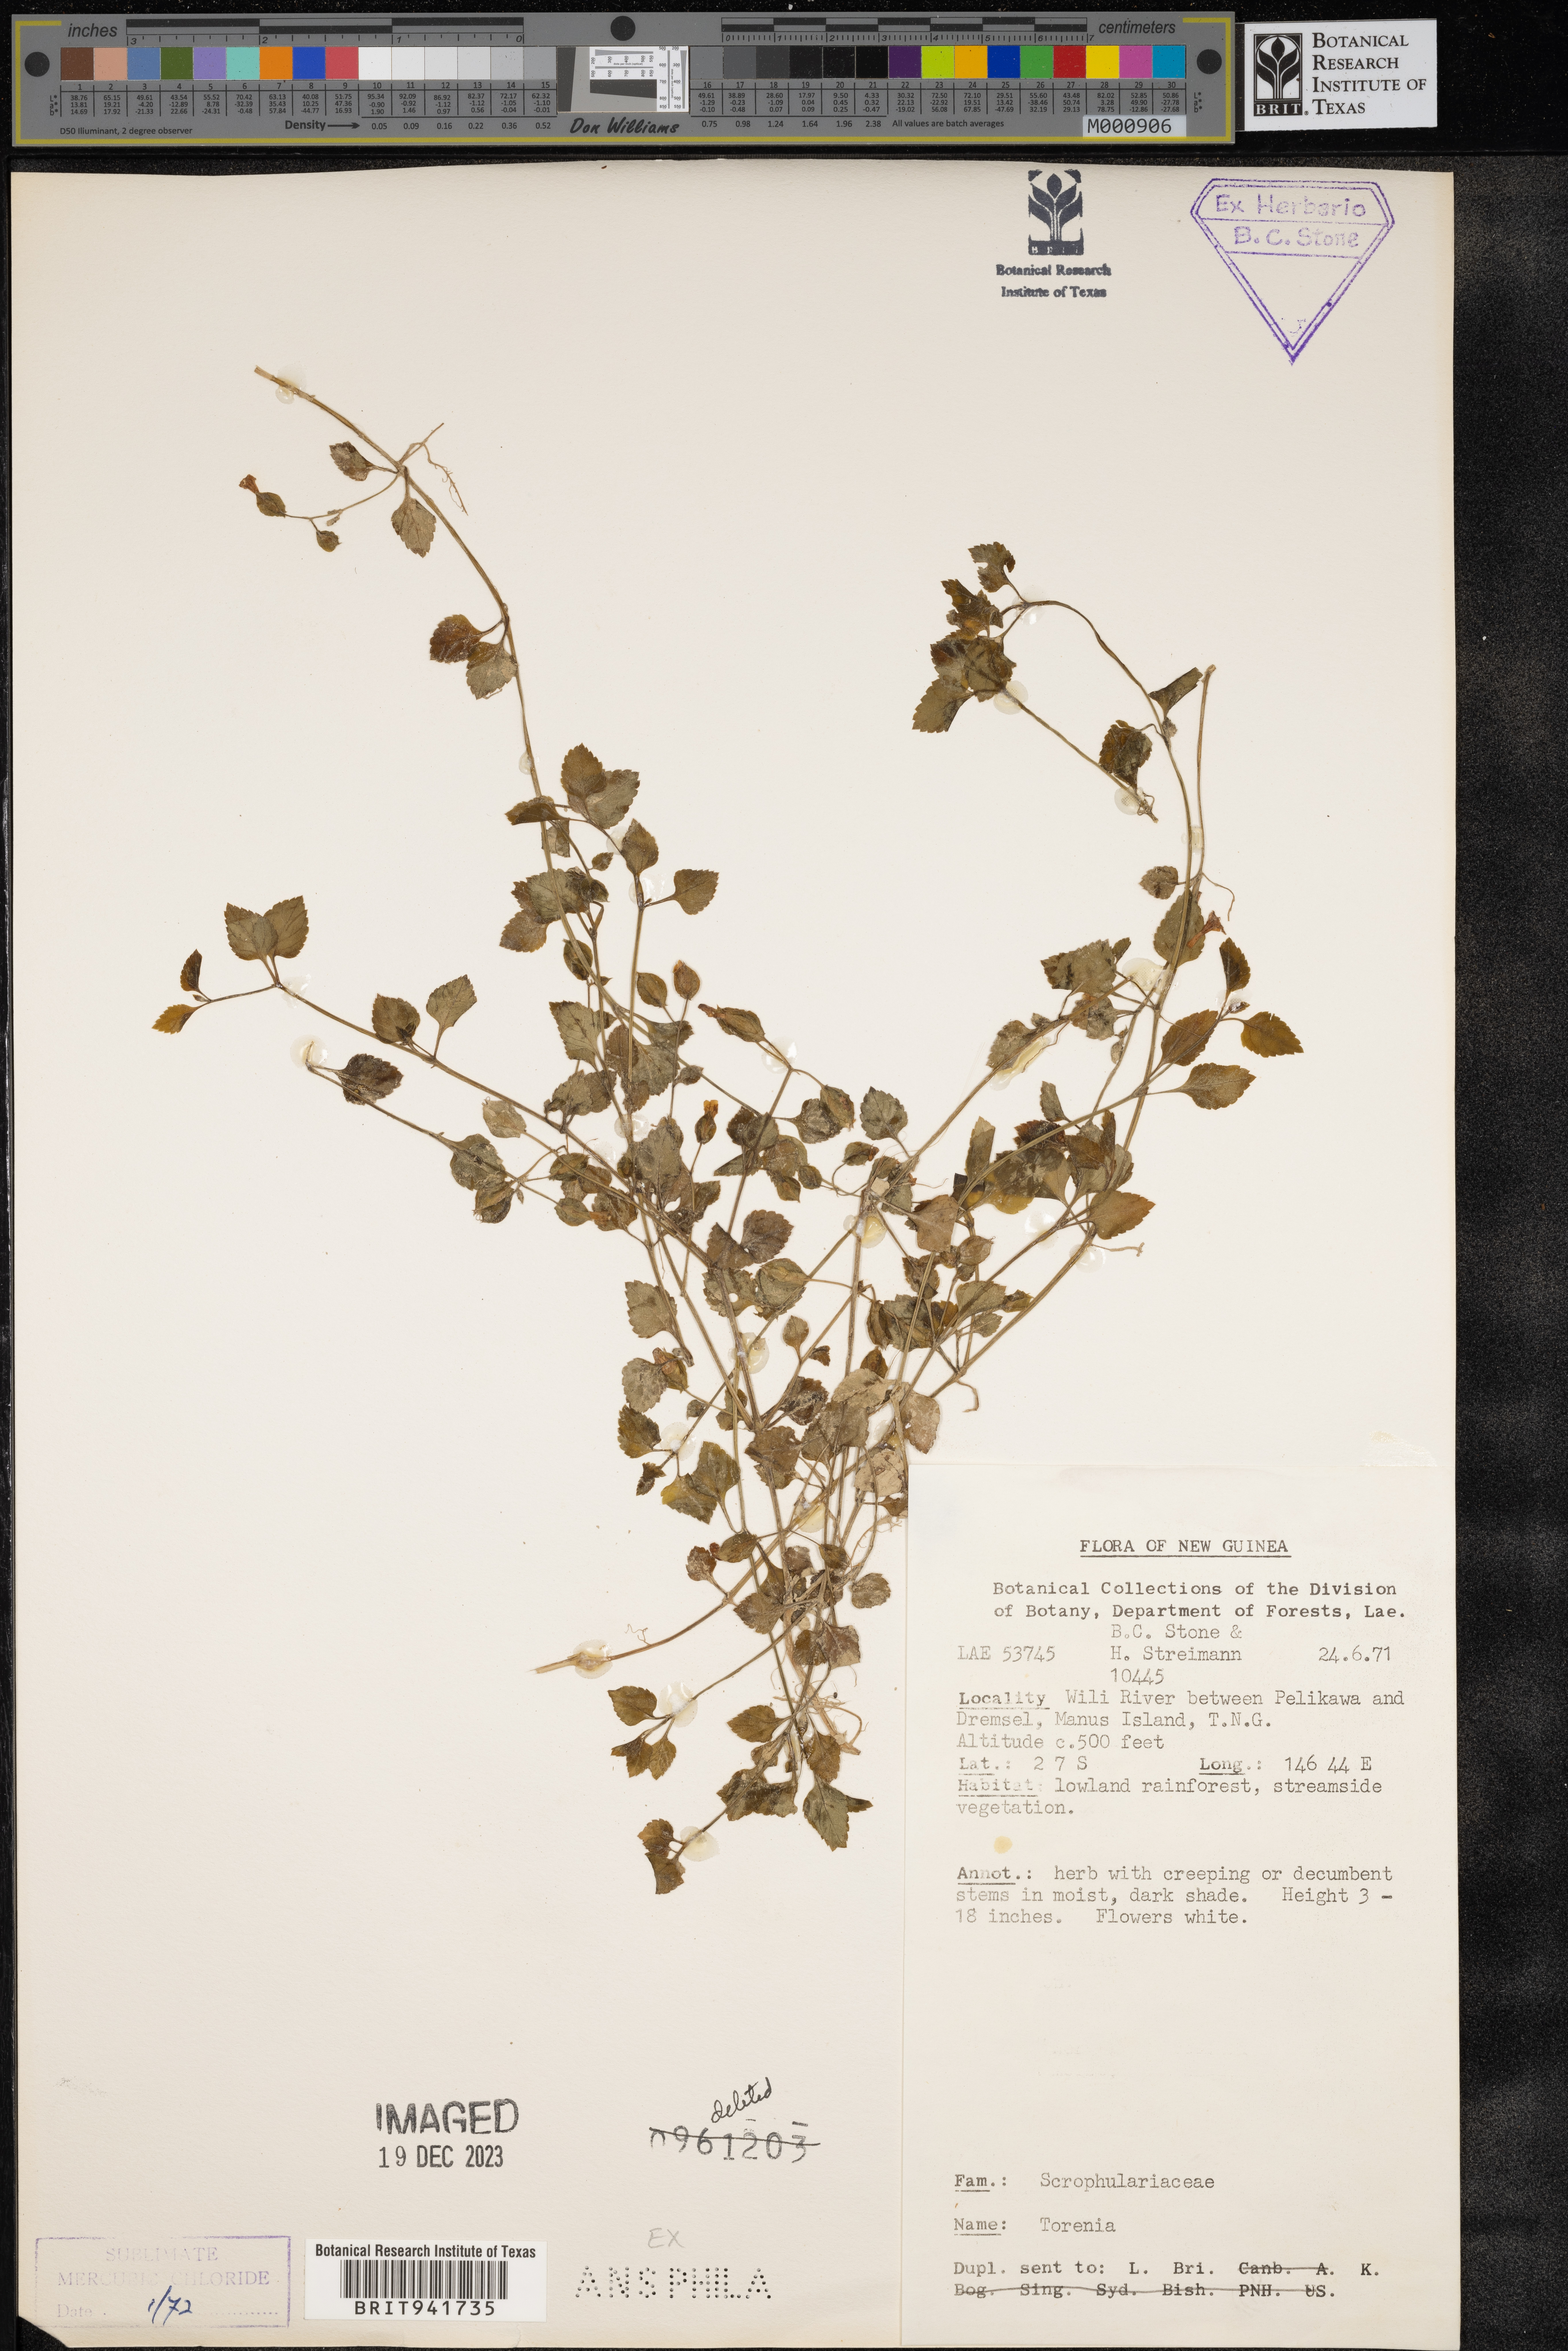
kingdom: Plantae
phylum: Tracheophyta
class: Magnoliopsida
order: Lamiales
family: Linderniaceae
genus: Torenia
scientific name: Torenia
